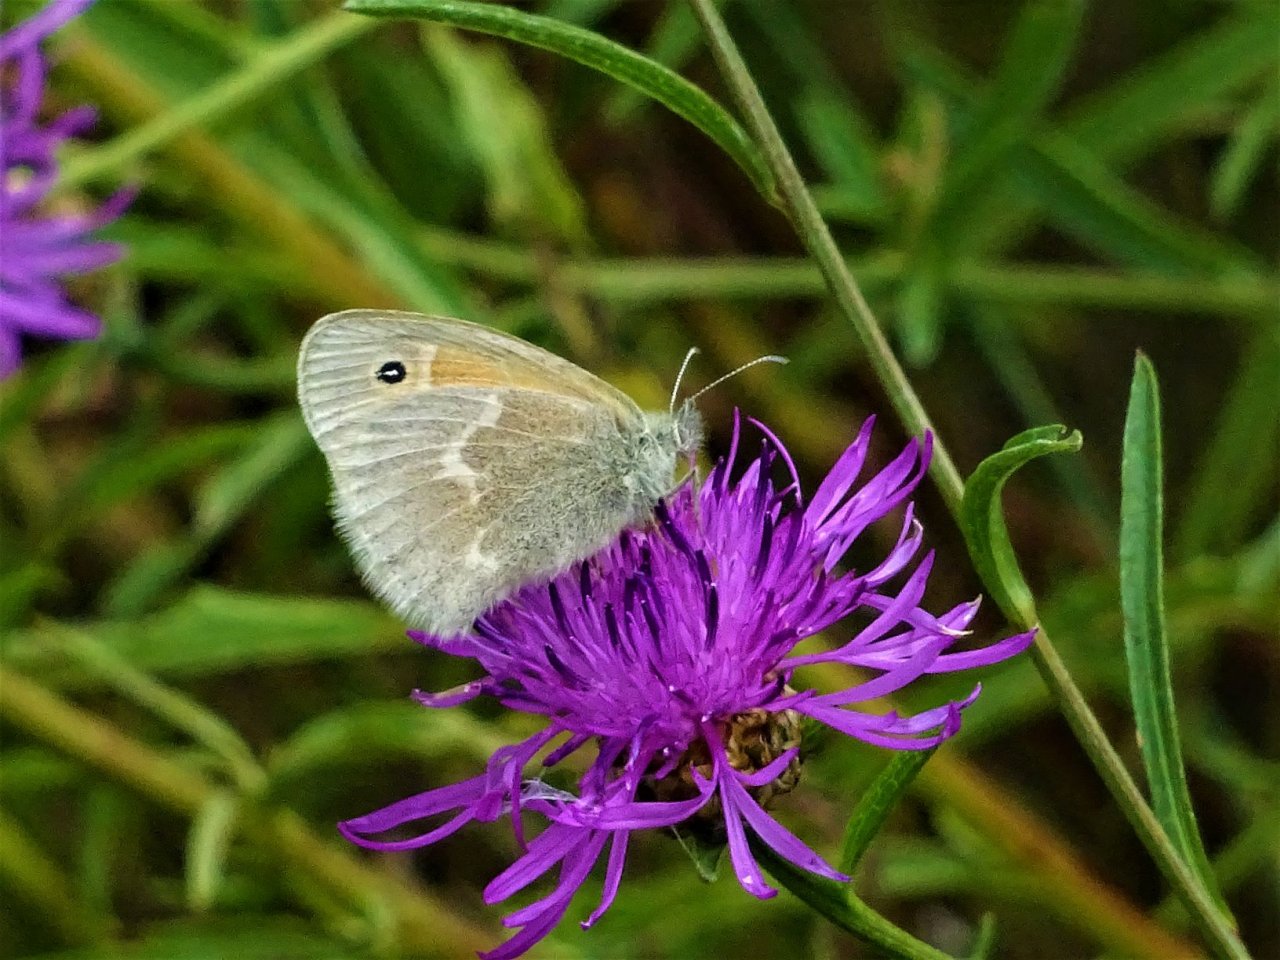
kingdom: Animalia
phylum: Arthropoda
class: Insecta
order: Lepidoptera
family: Nymphalidae
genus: Coenonympha
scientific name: Coenonympha tullia
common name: Large Heath
